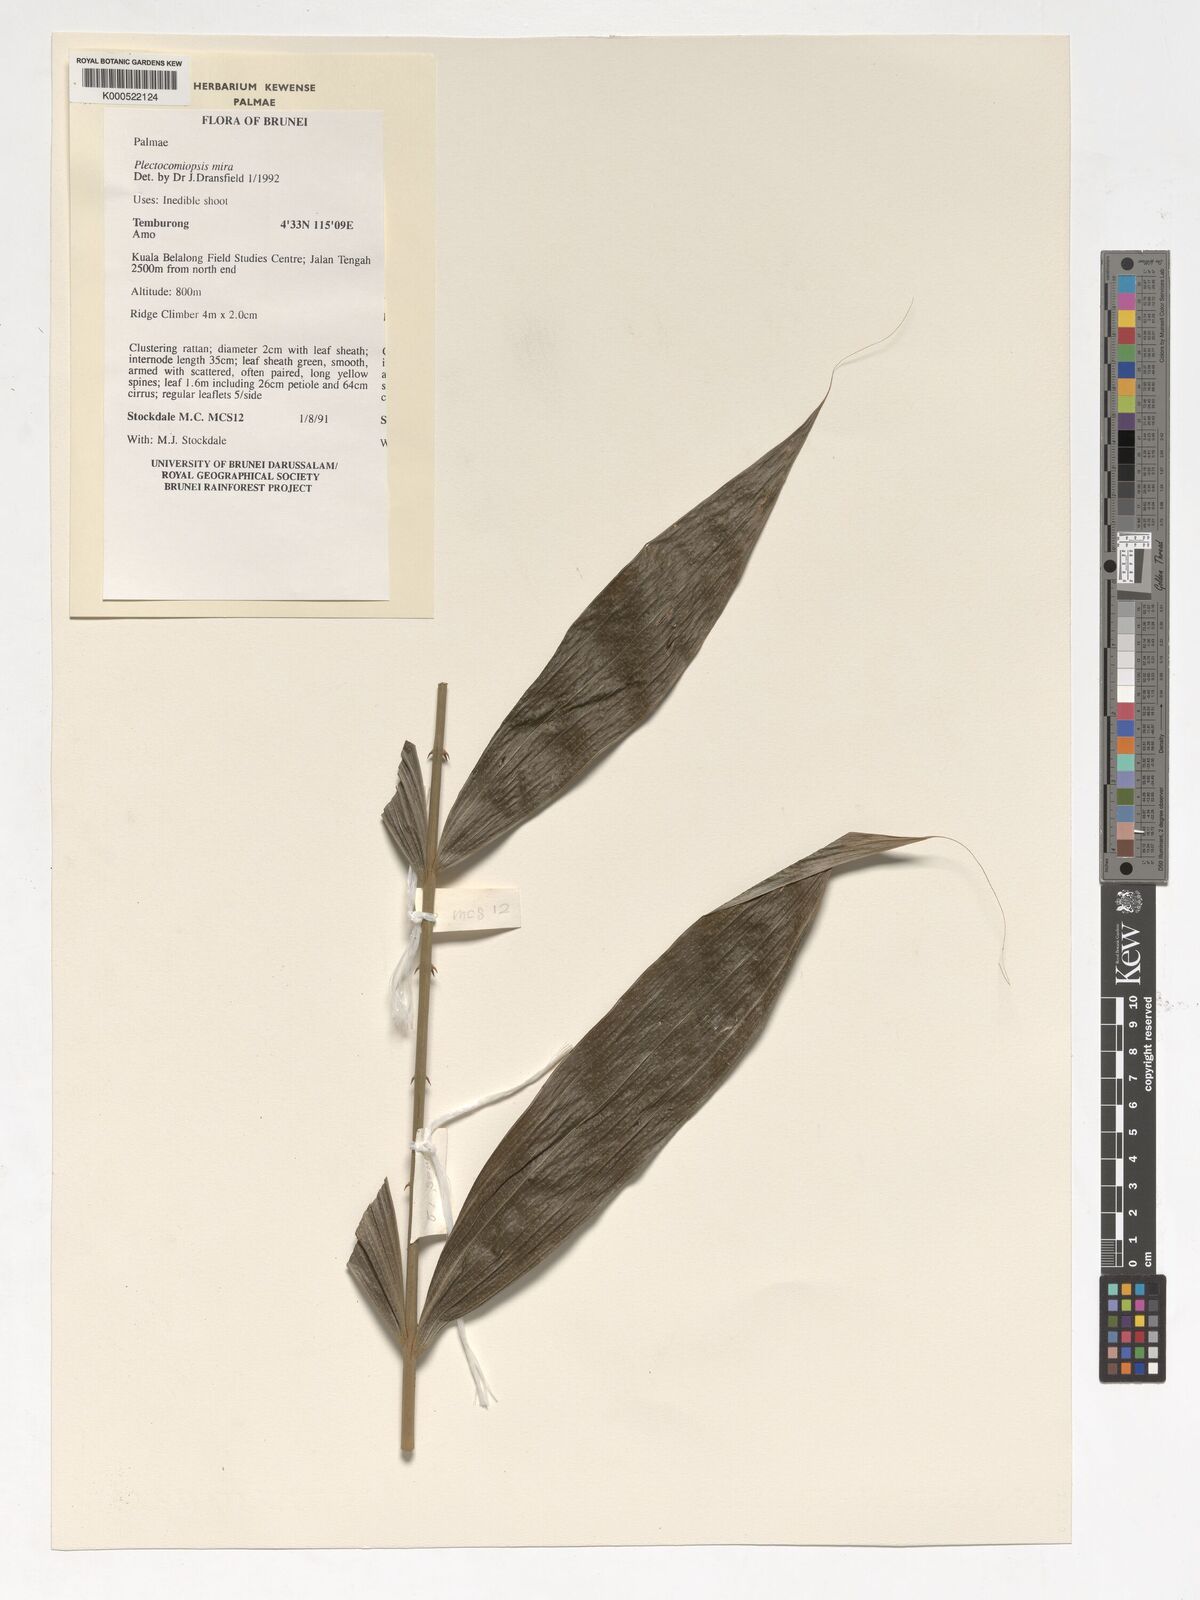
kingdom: Plantae
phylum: Tracheophyta
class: Liliopsida
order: Arecales
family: Arecaceae
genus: Plectocomiopsis
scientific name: Plectocomiopsis mira
